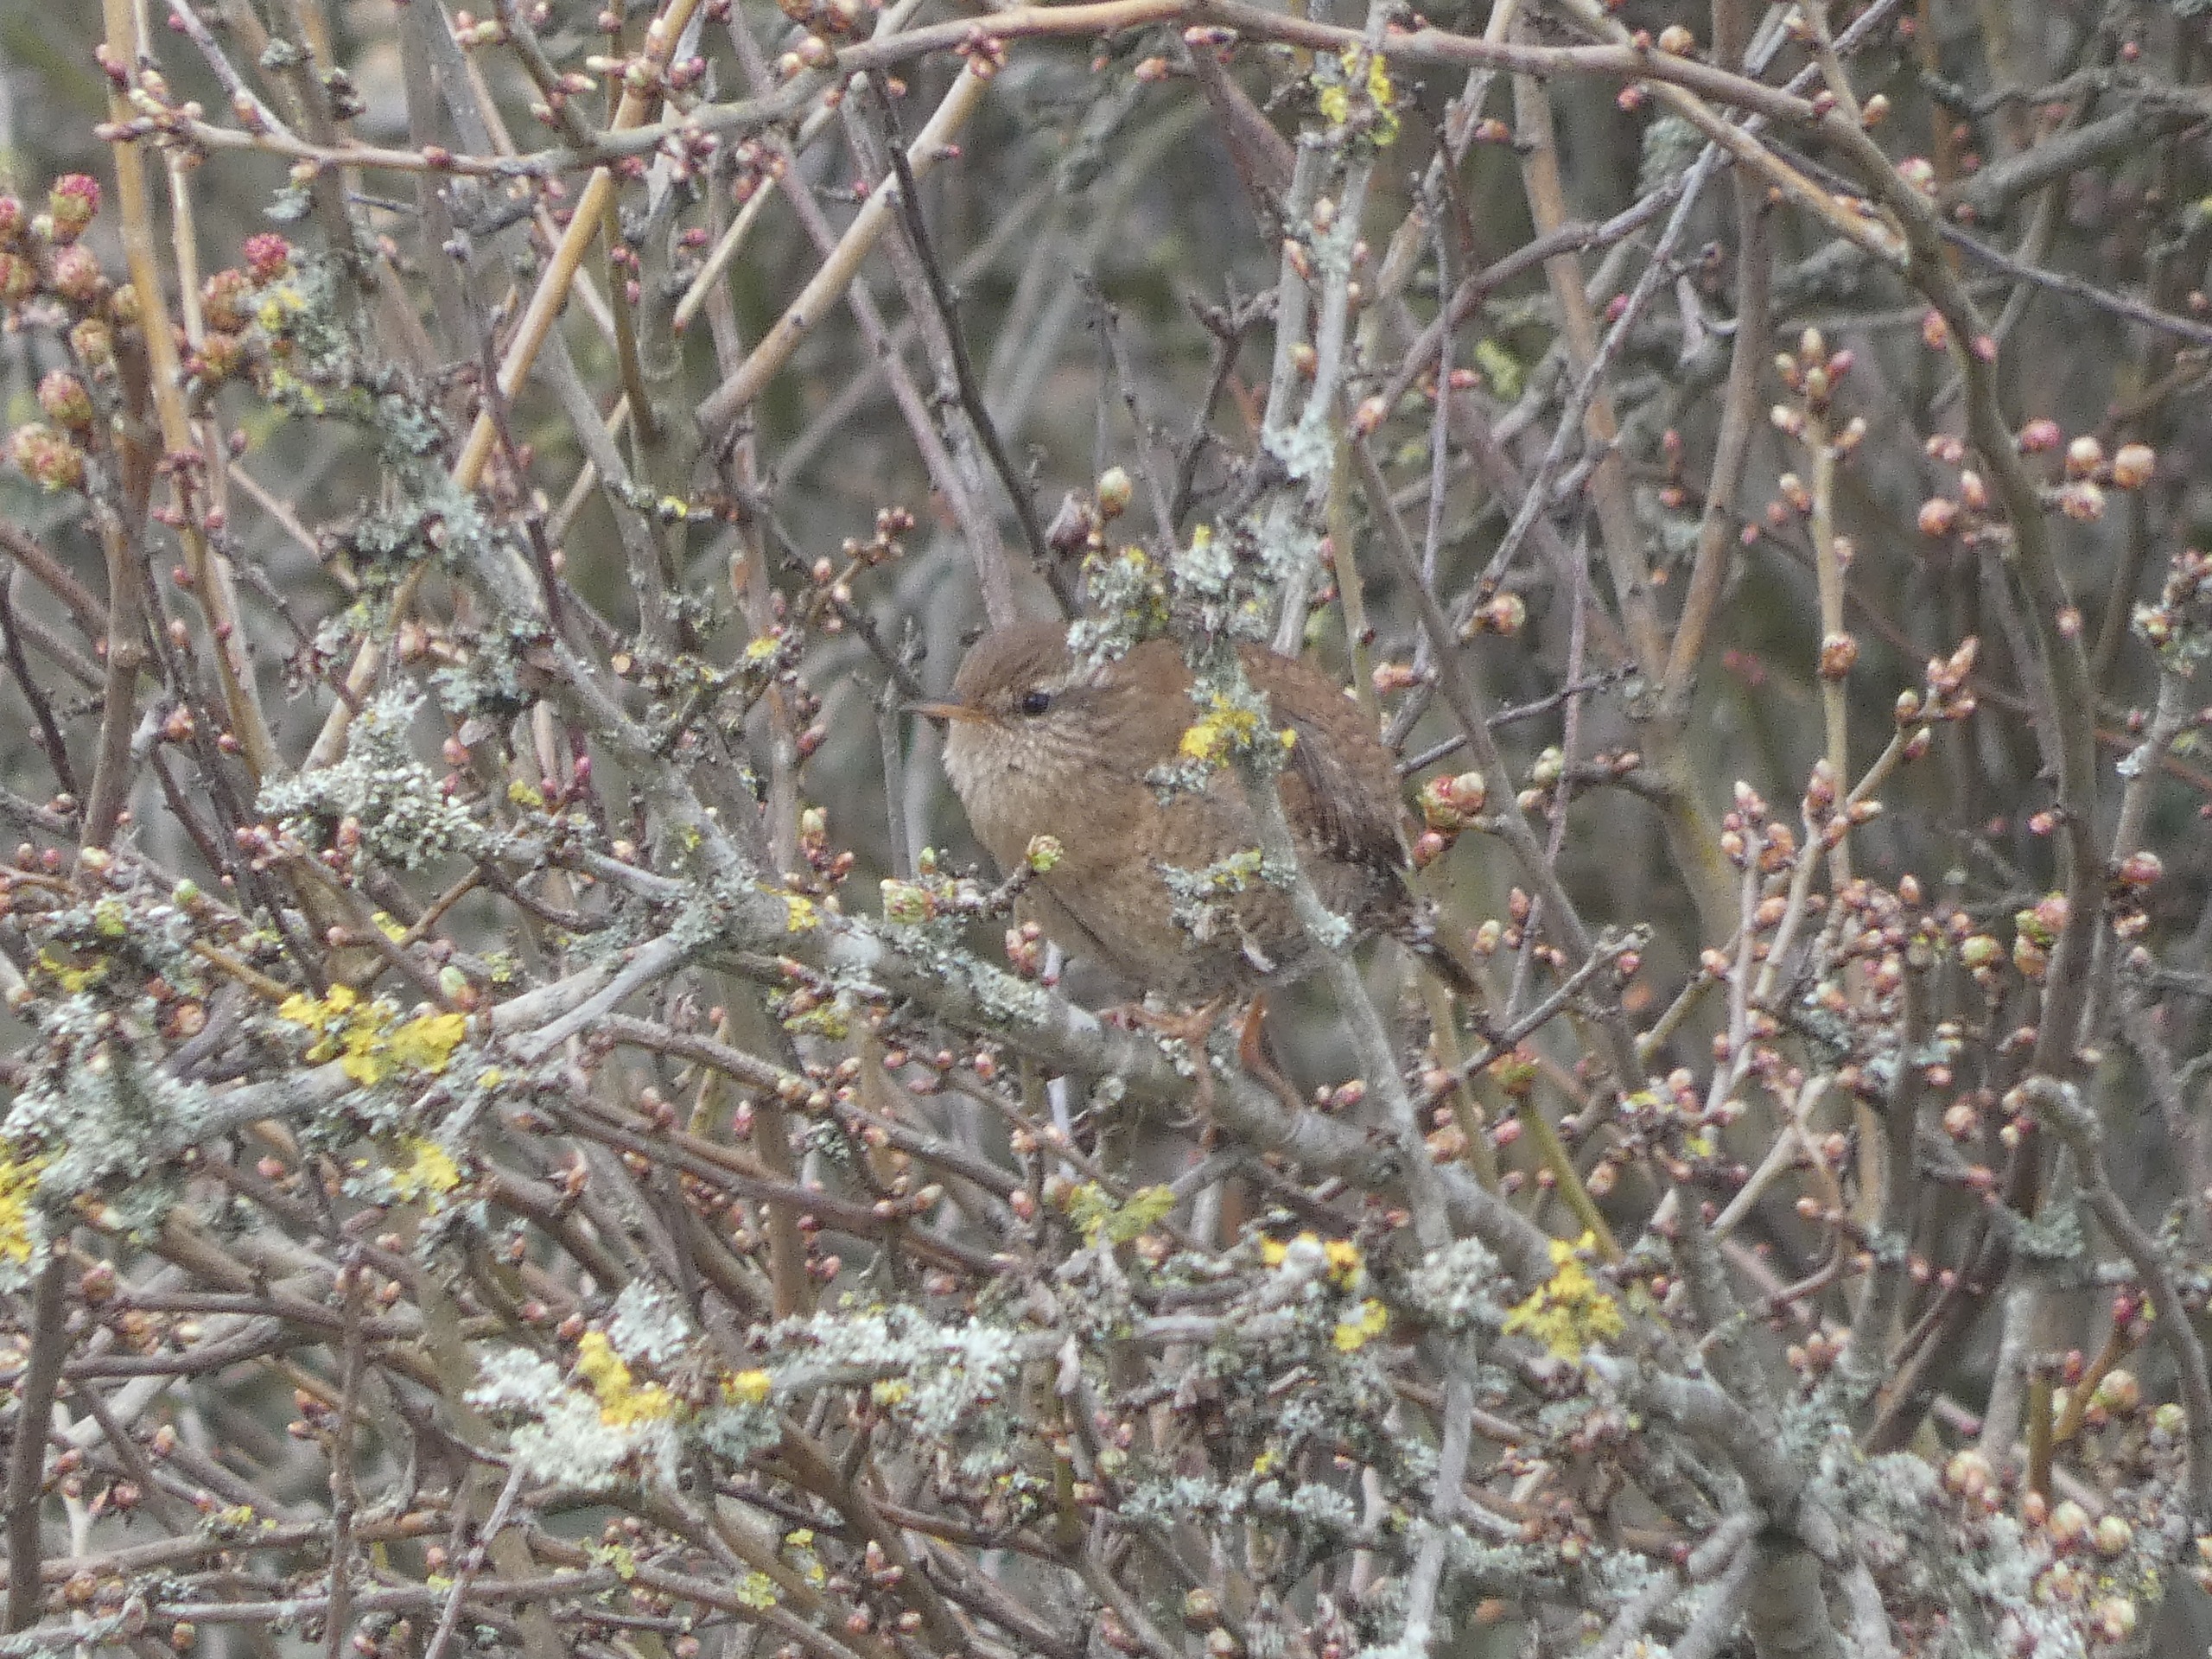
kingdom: Animalia
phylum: Chordata
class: Aves
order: Passeriformes
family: Troglodytidae
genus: Troglodytes
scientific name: Troglodytes troglodytes
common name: Gærdesmutte
